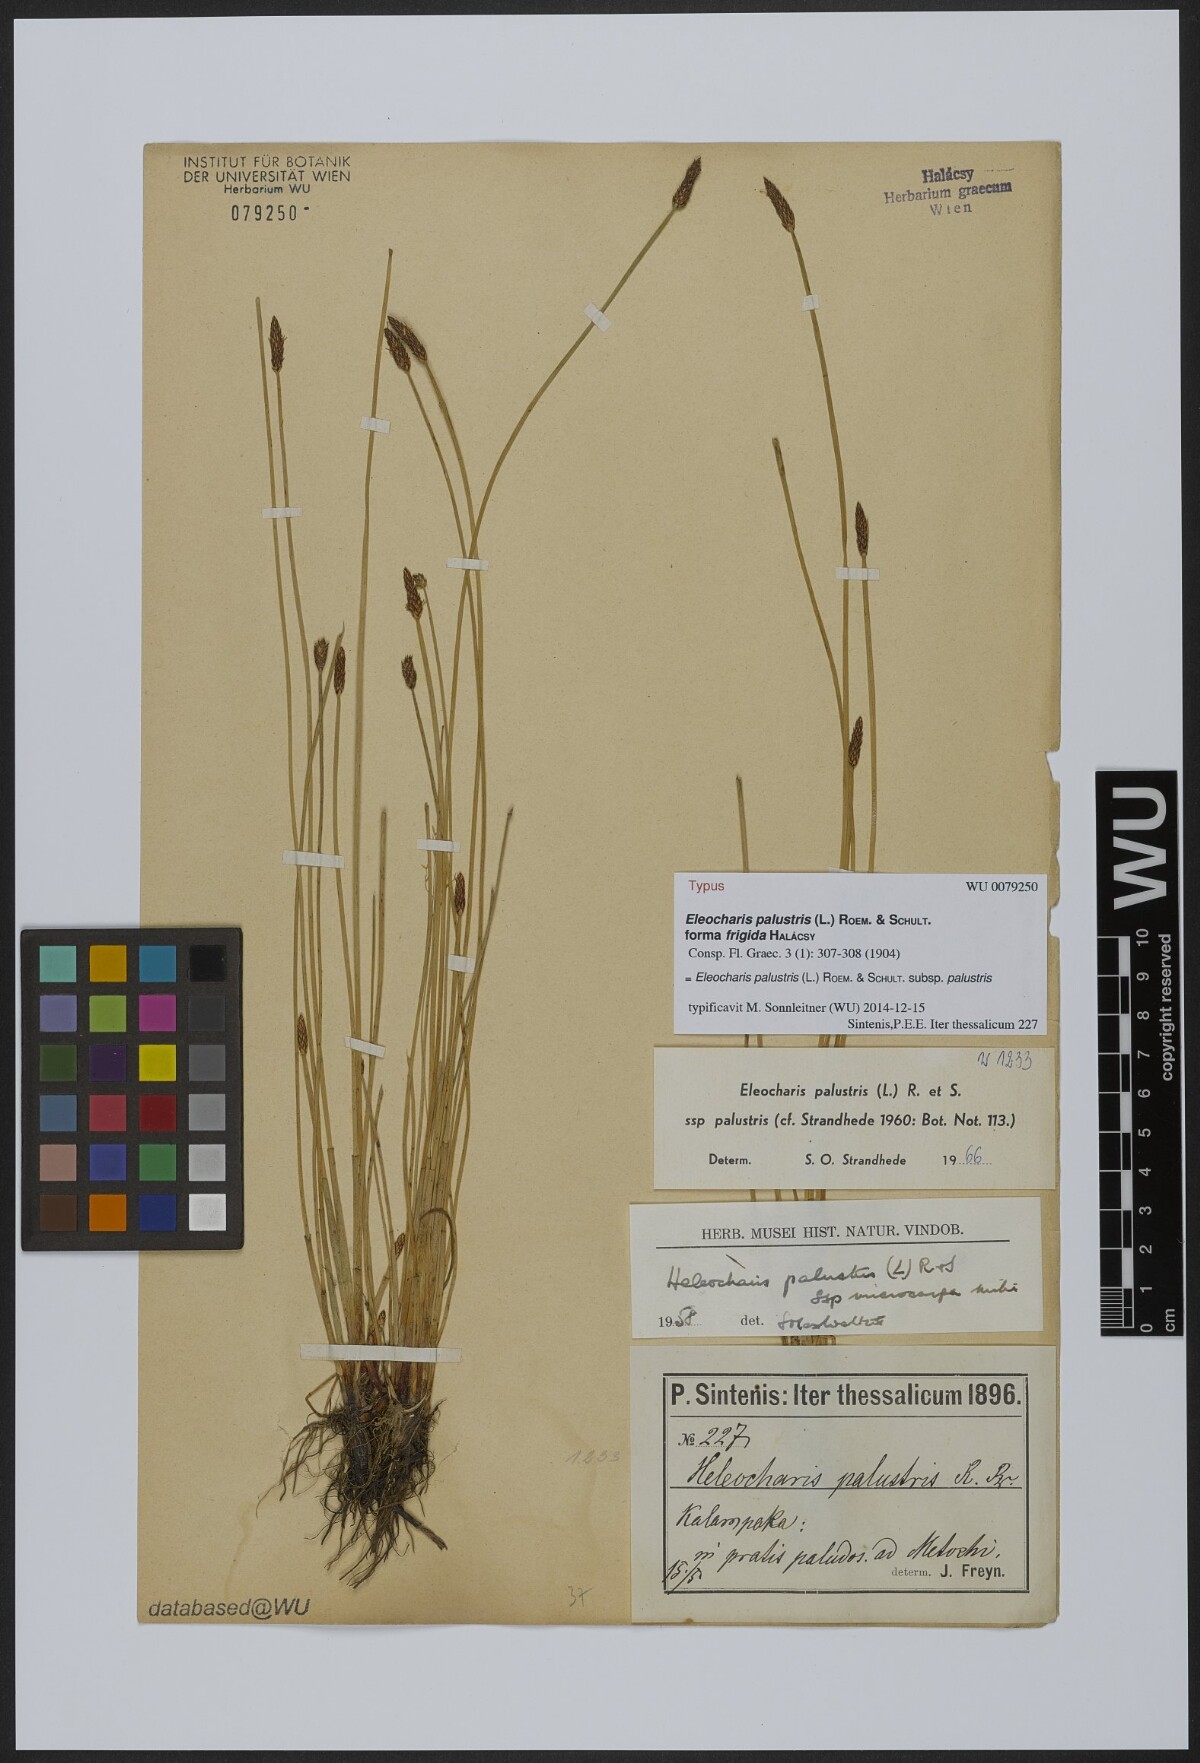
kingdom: Plantae
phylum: Tracheophyta
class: Liliopsida
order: Poales
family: Cyperaceae
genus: Eleocharis
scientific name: Eleocharis palustris
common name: Common spike-rush
